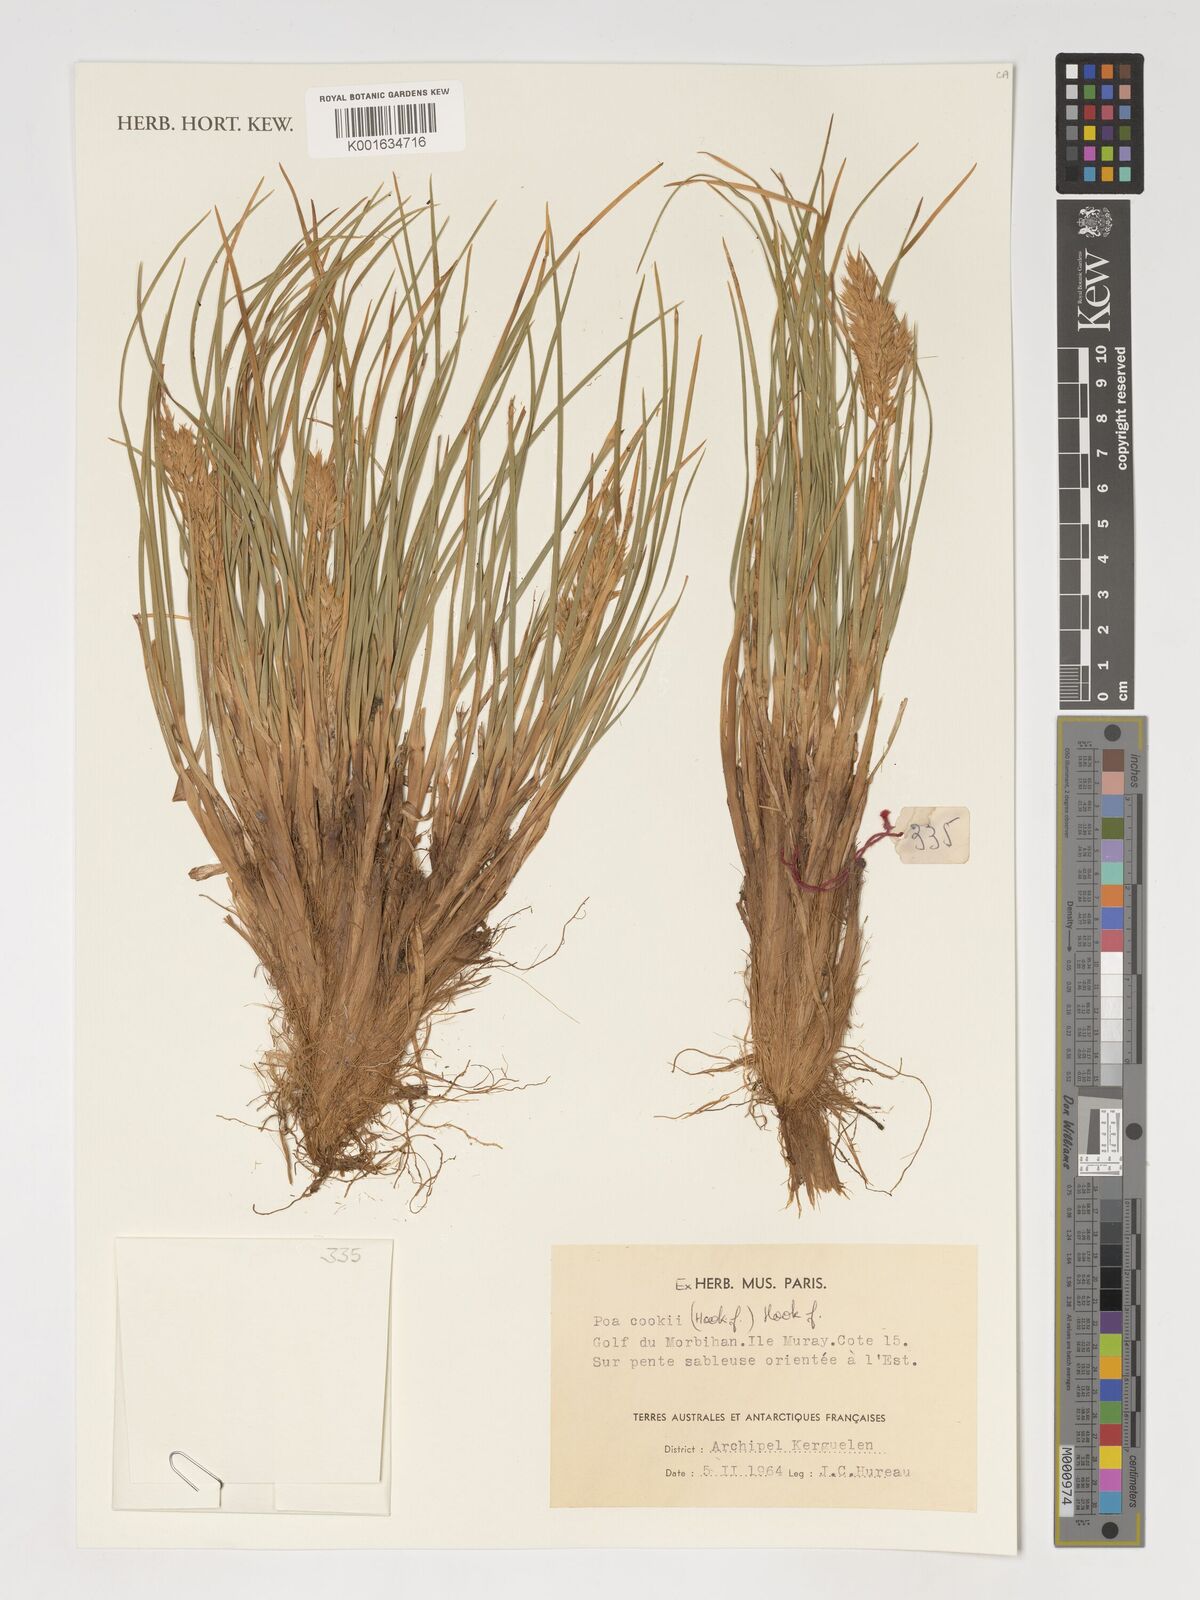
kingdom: Plantae
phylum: Tracheophyta
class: Liliopsida
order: Poales
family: Poaceae
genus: Poa
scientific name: Poa cookii
